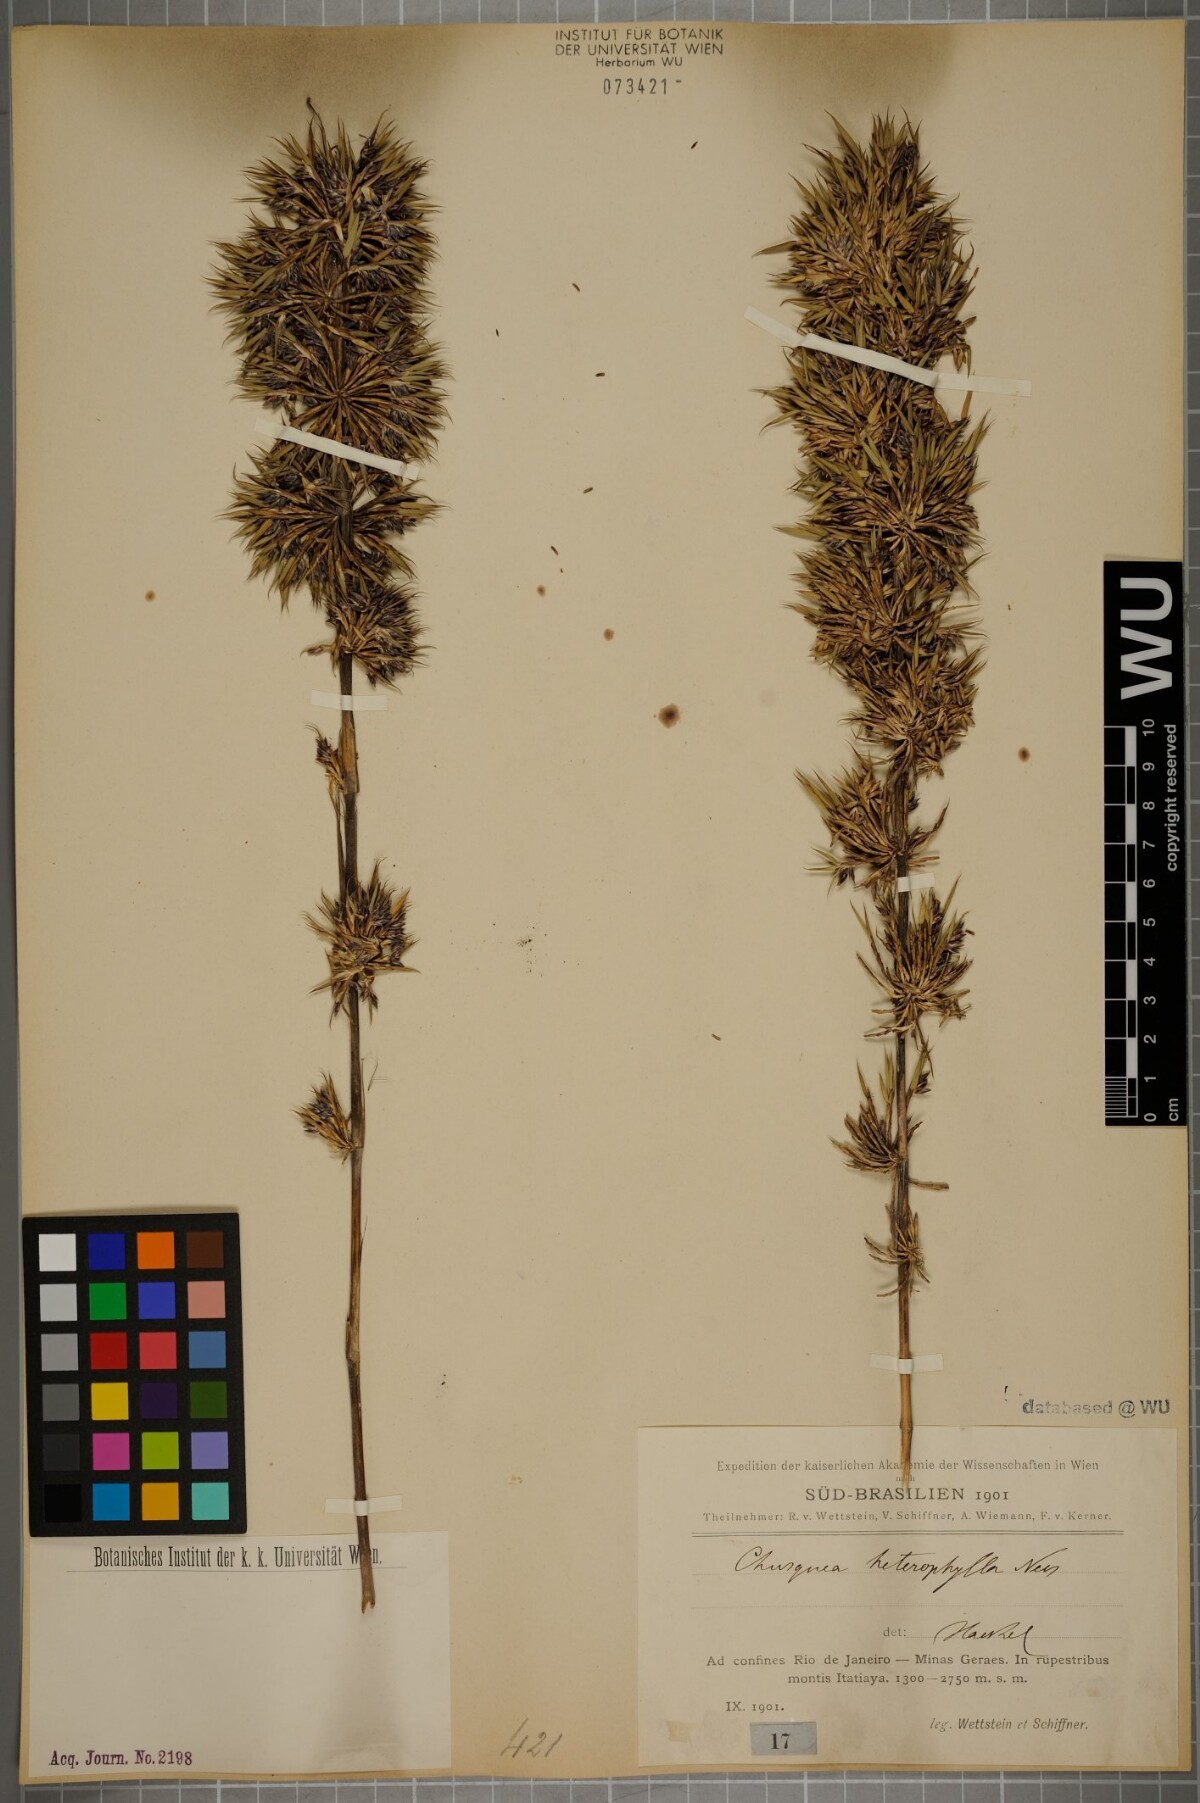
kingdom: Plantae
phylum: Tracheophyta
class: Liliopsida
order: Poales
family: Poaceae
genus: Chusquea
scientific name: Chusquea heterophylla
